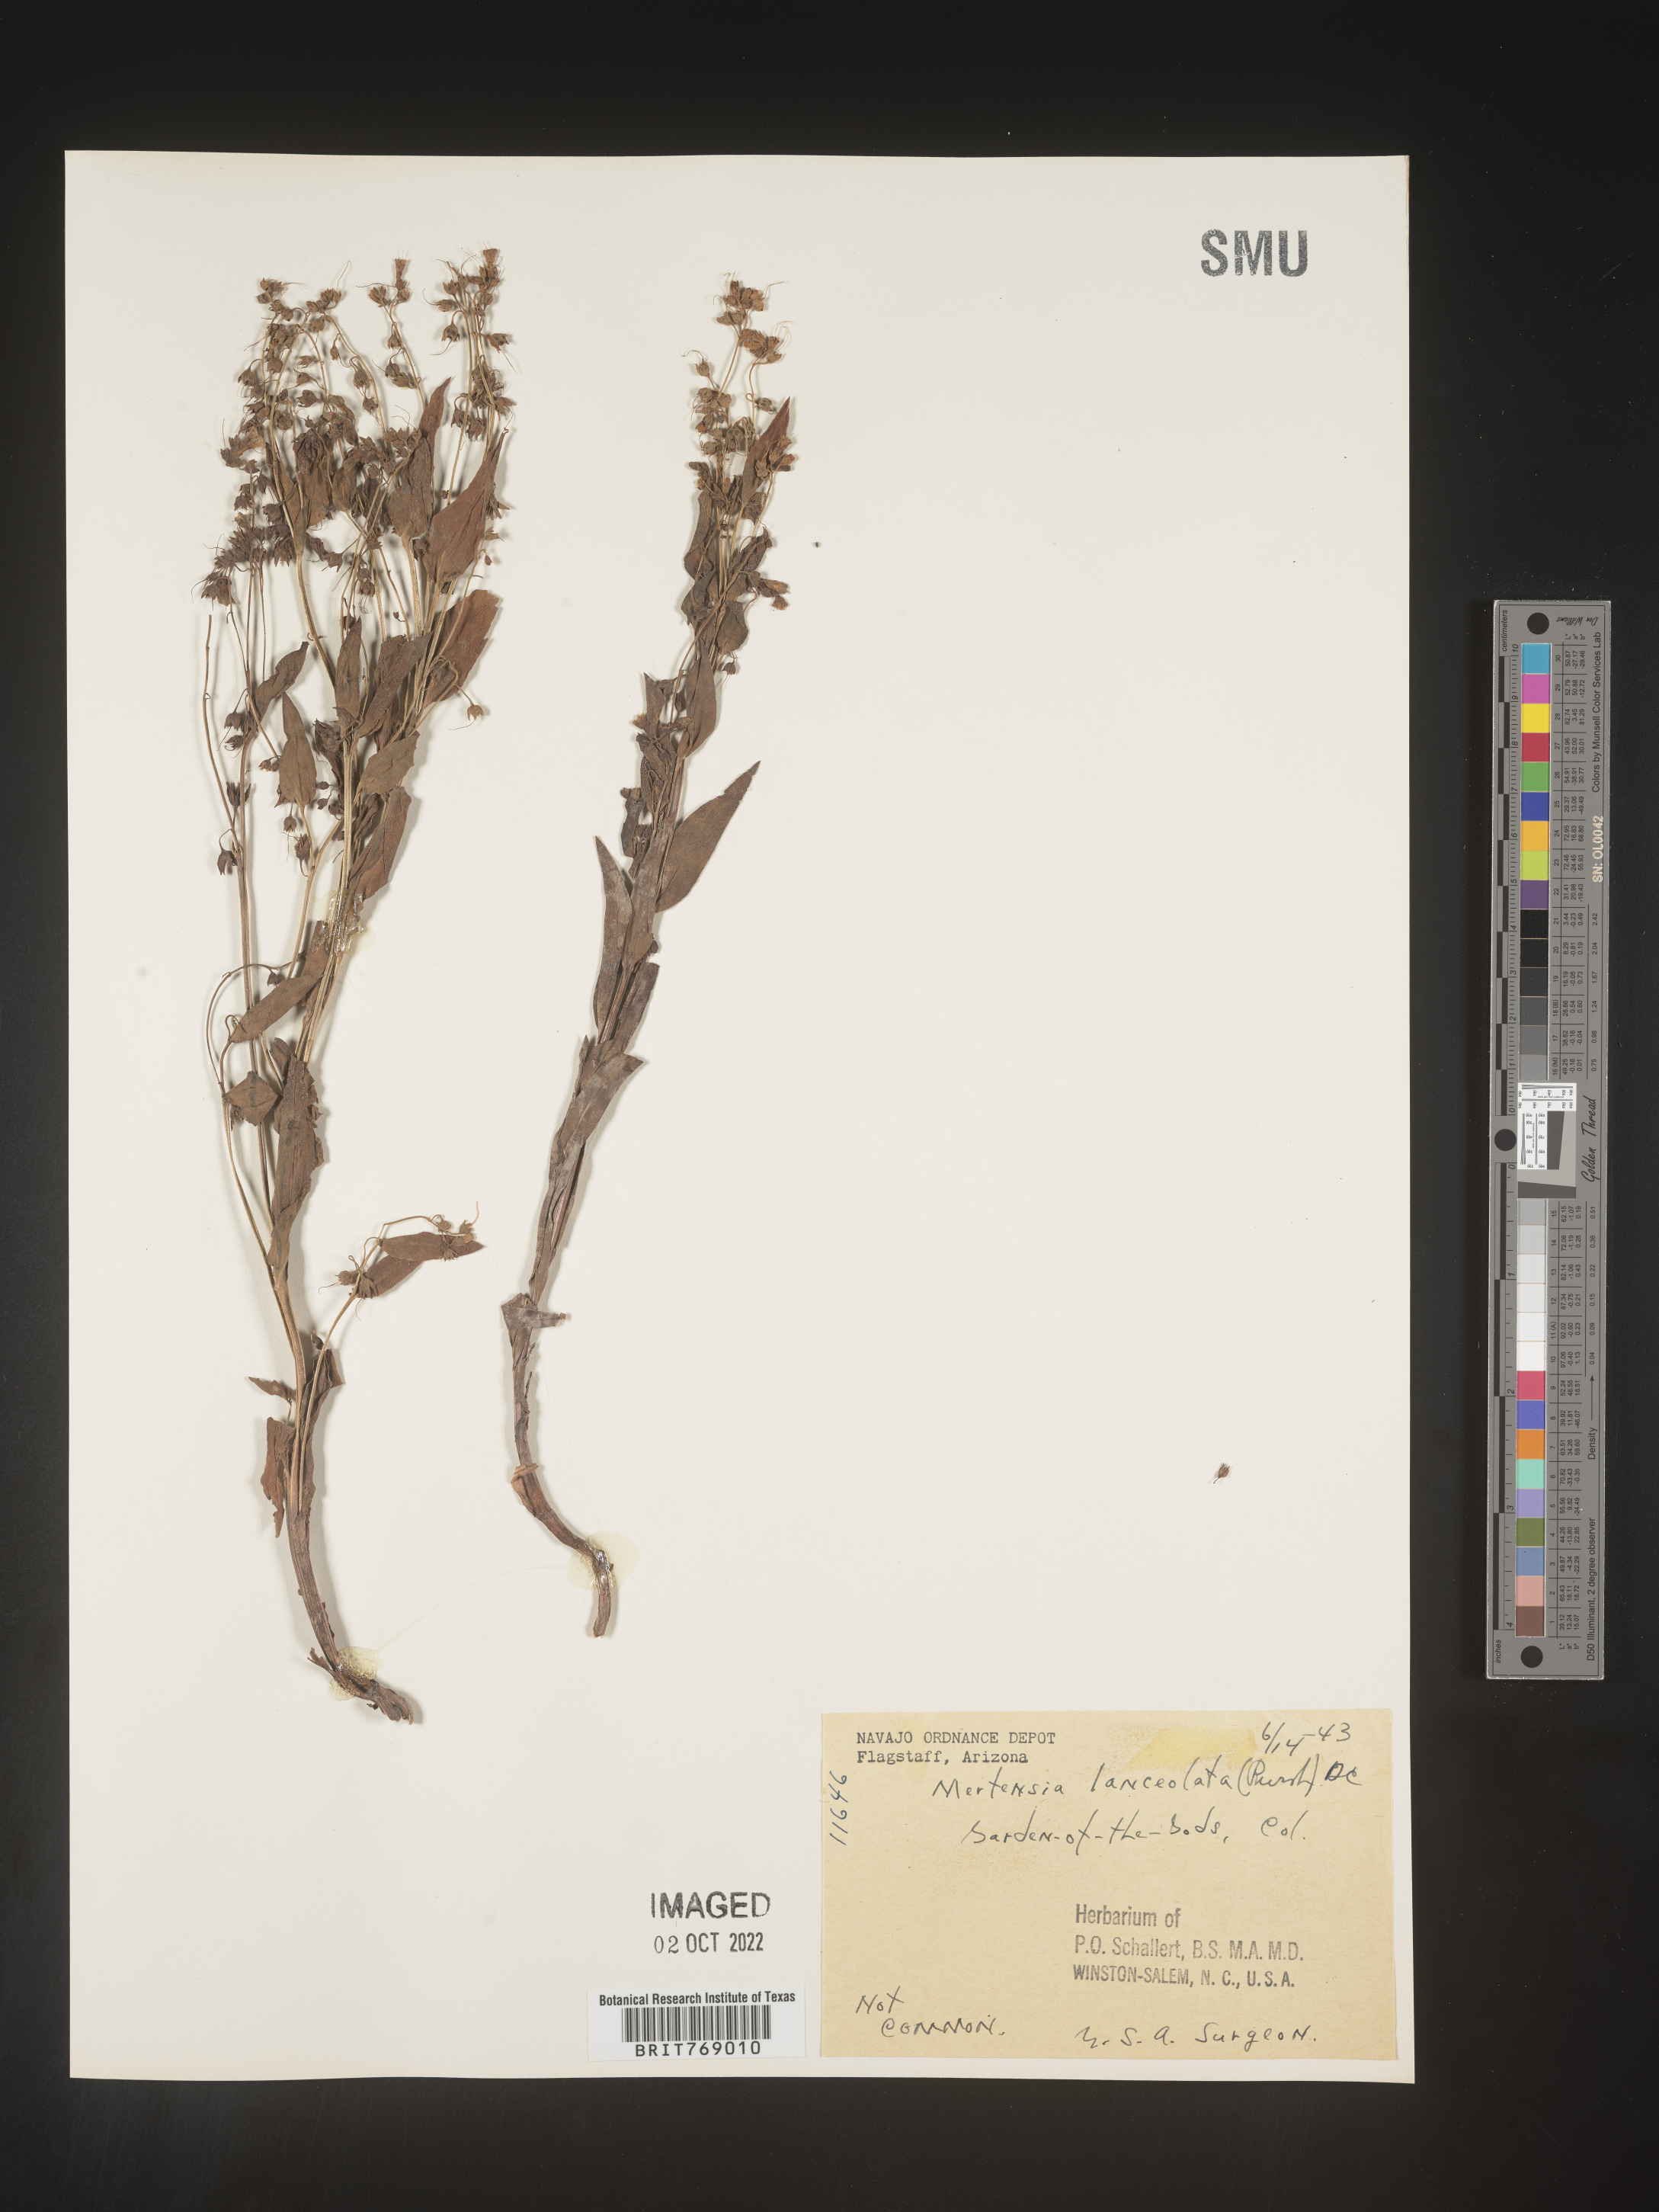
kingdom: Plantae
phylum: Tracheophyta
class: Magnoliopsida
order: Boraginales
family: Boraginaceae
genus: Mertensia
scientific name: Mertensia
